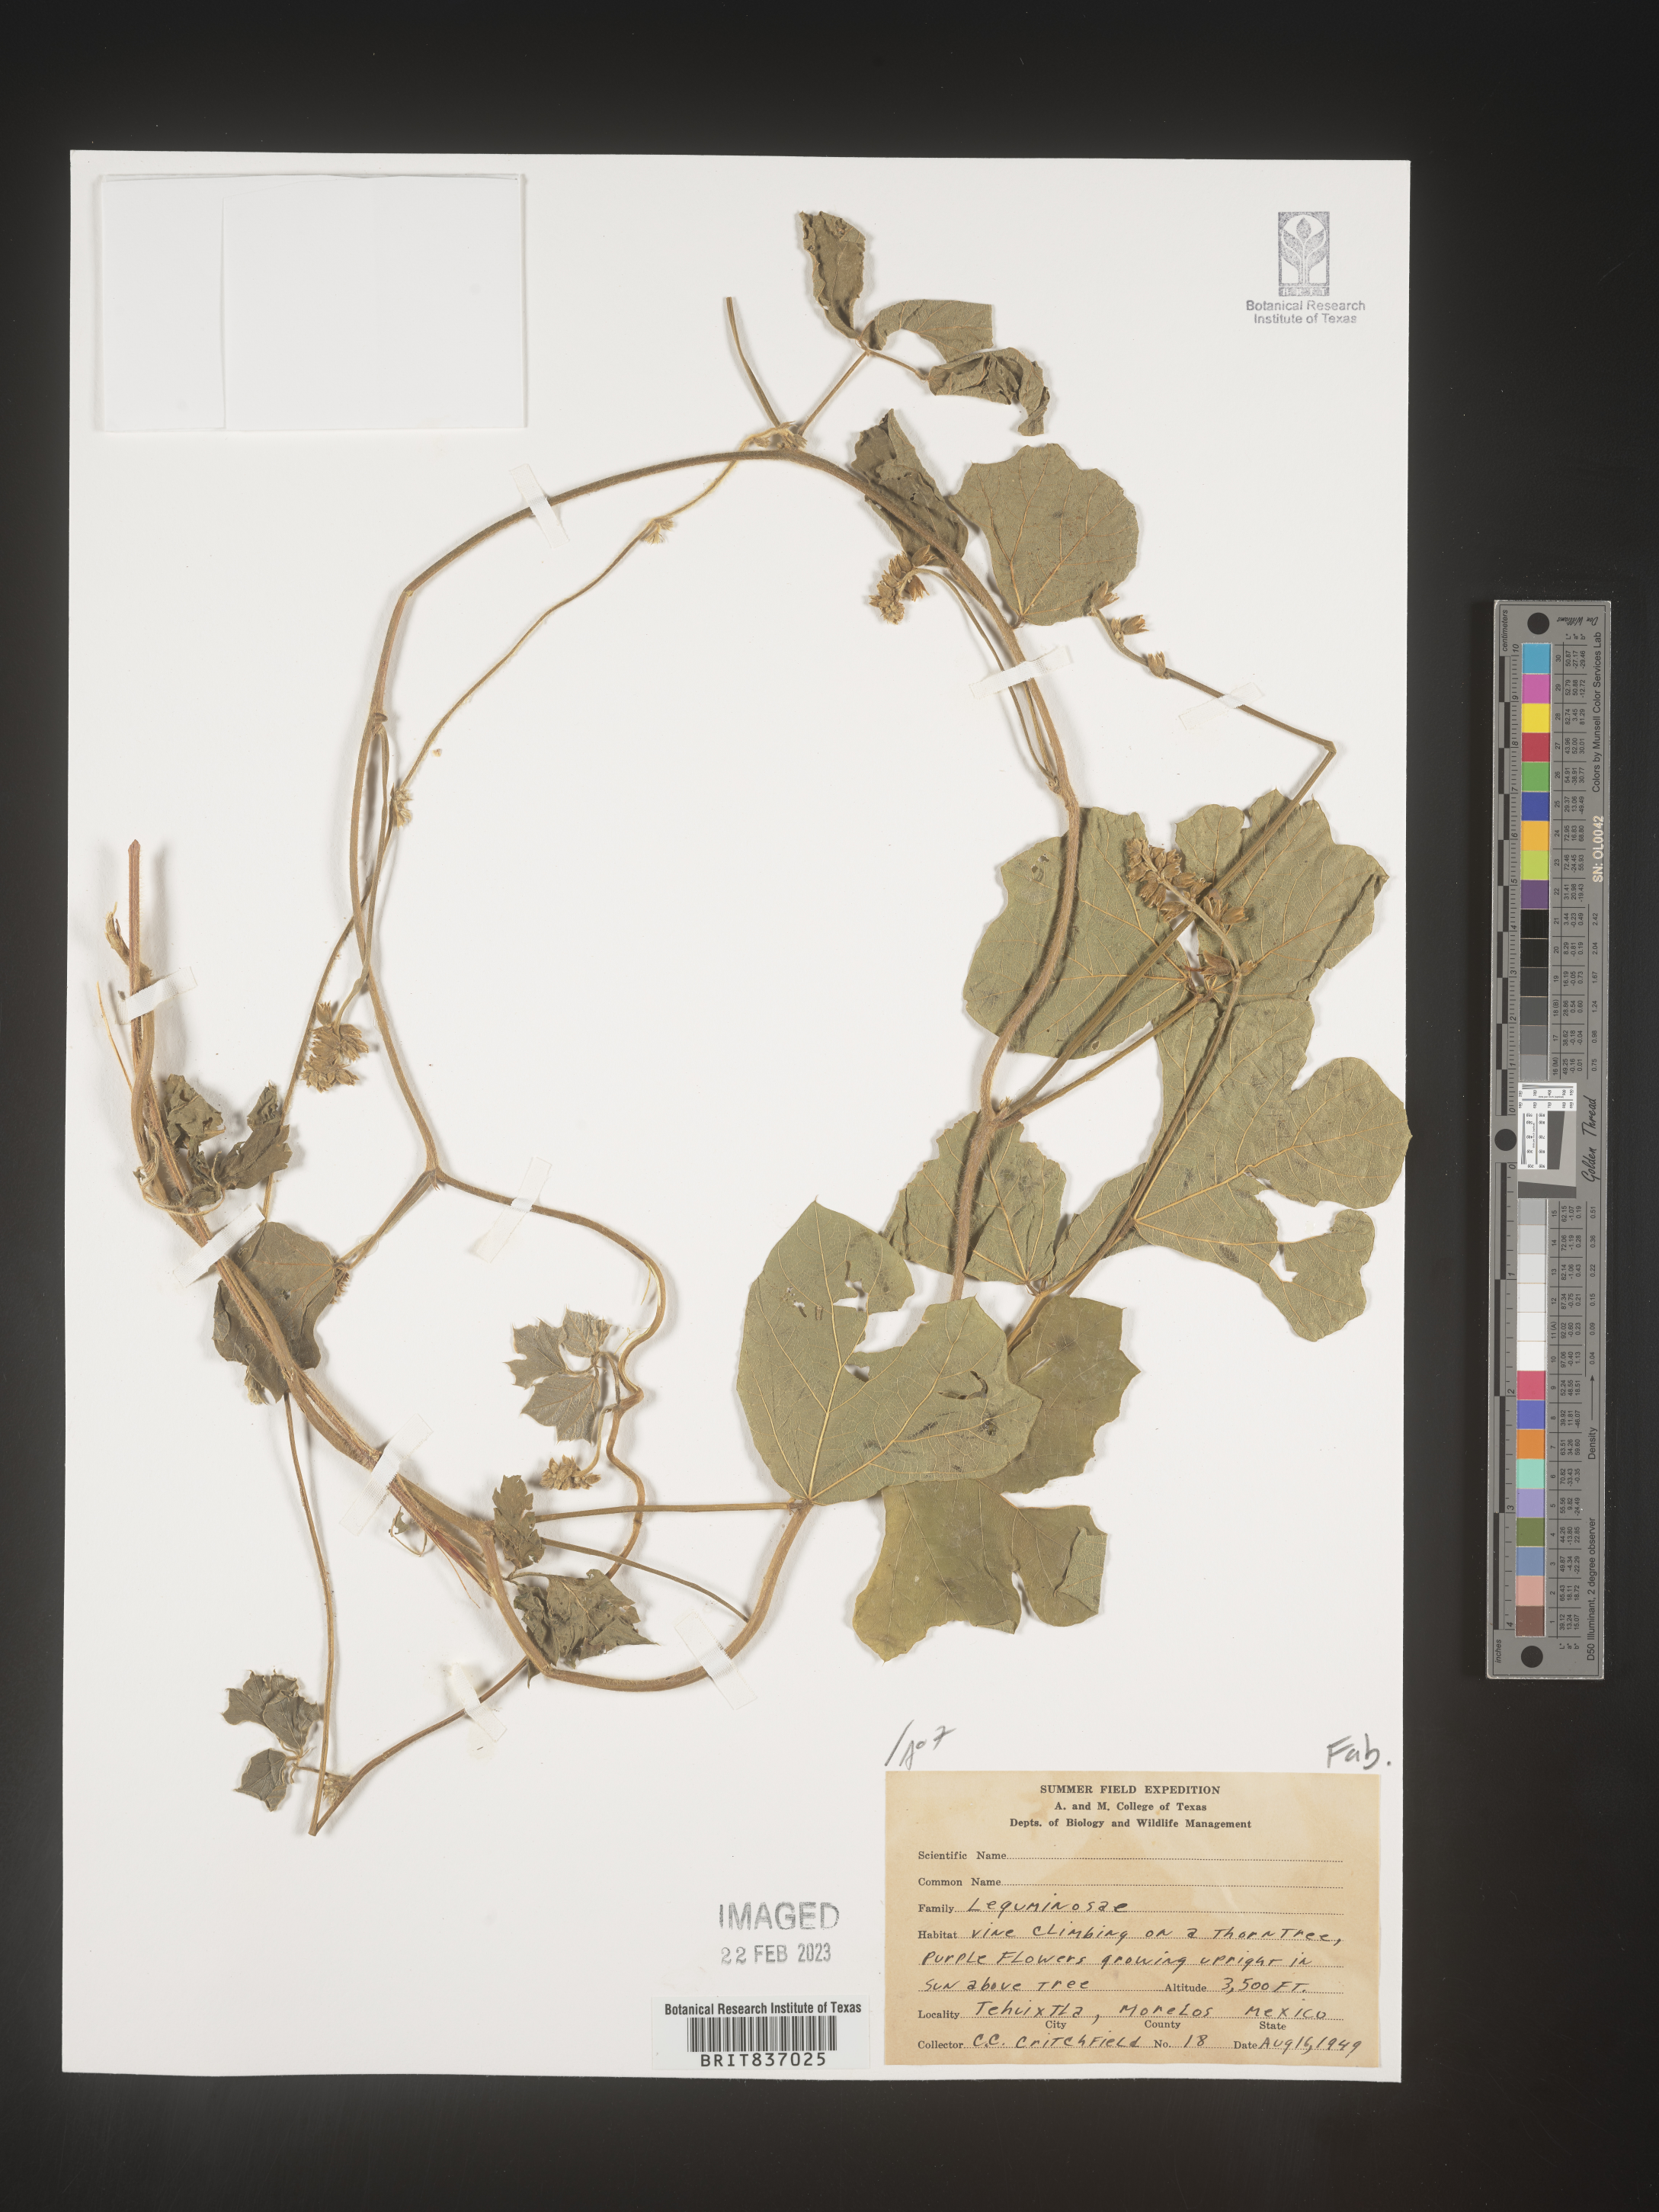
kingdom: Plantae
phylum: Tracheophyta
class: Magnoliopsida
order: Fabales
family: Fabaceae
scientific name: Fabaceae
